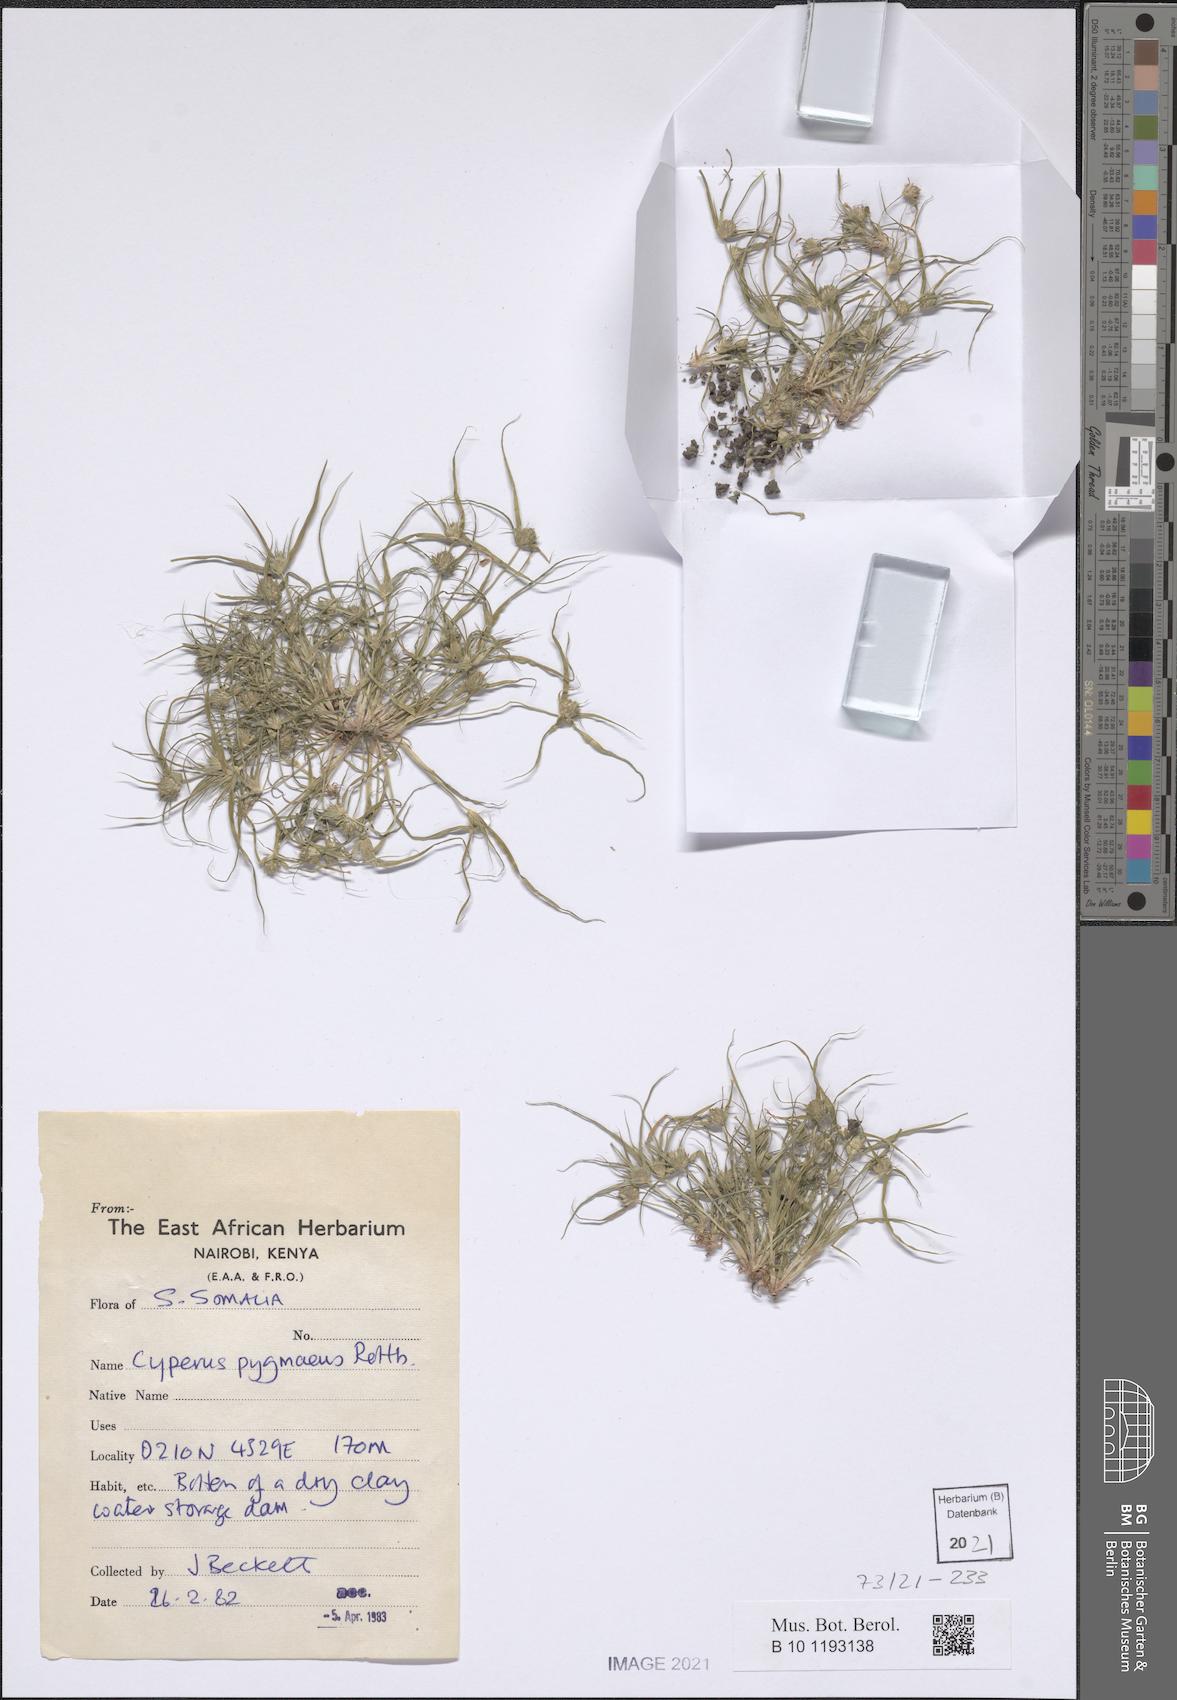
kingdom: Plantae
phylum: Tracheophyta
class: Liliopsida
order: Poales
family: Cyperaceae
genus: Cyperus
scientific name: Cyperus michelianus
